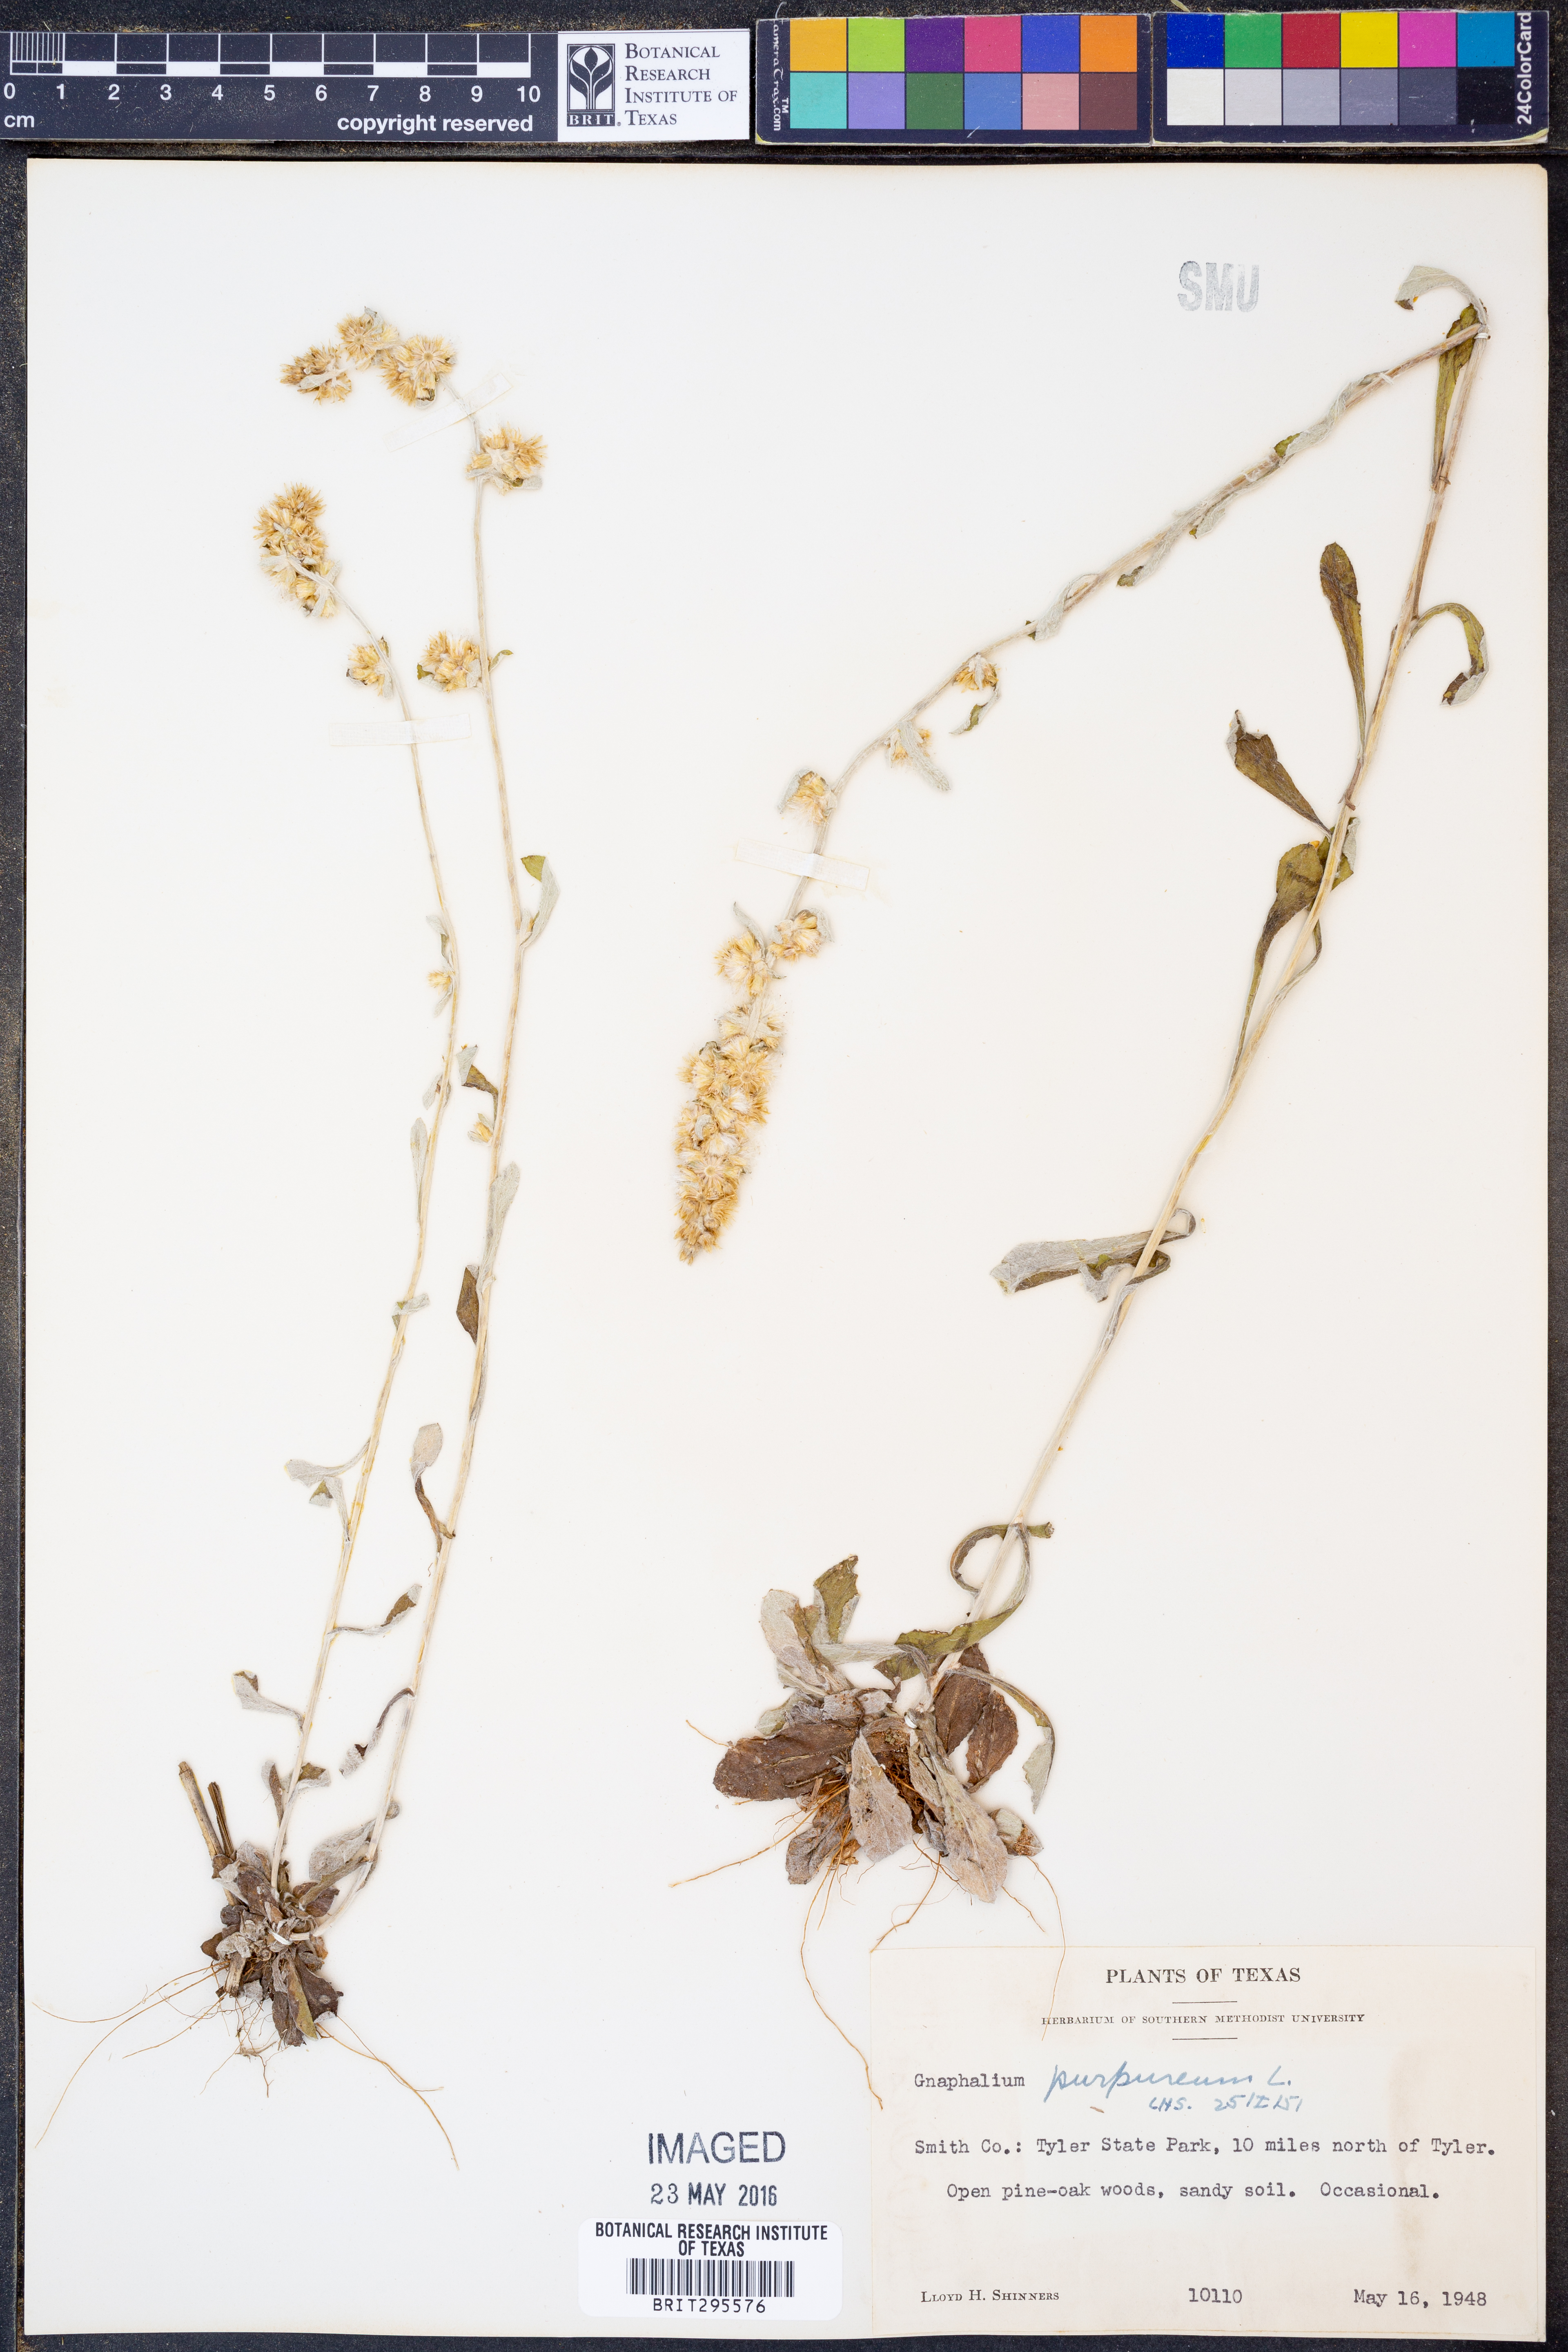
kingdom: Plantae
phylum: Tracheophyta
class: Magnoliopsida
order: Asterales
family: Asteraceae
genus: Gamochaeta
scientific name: Gamochaeta purpurea
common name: Purple cudweed
